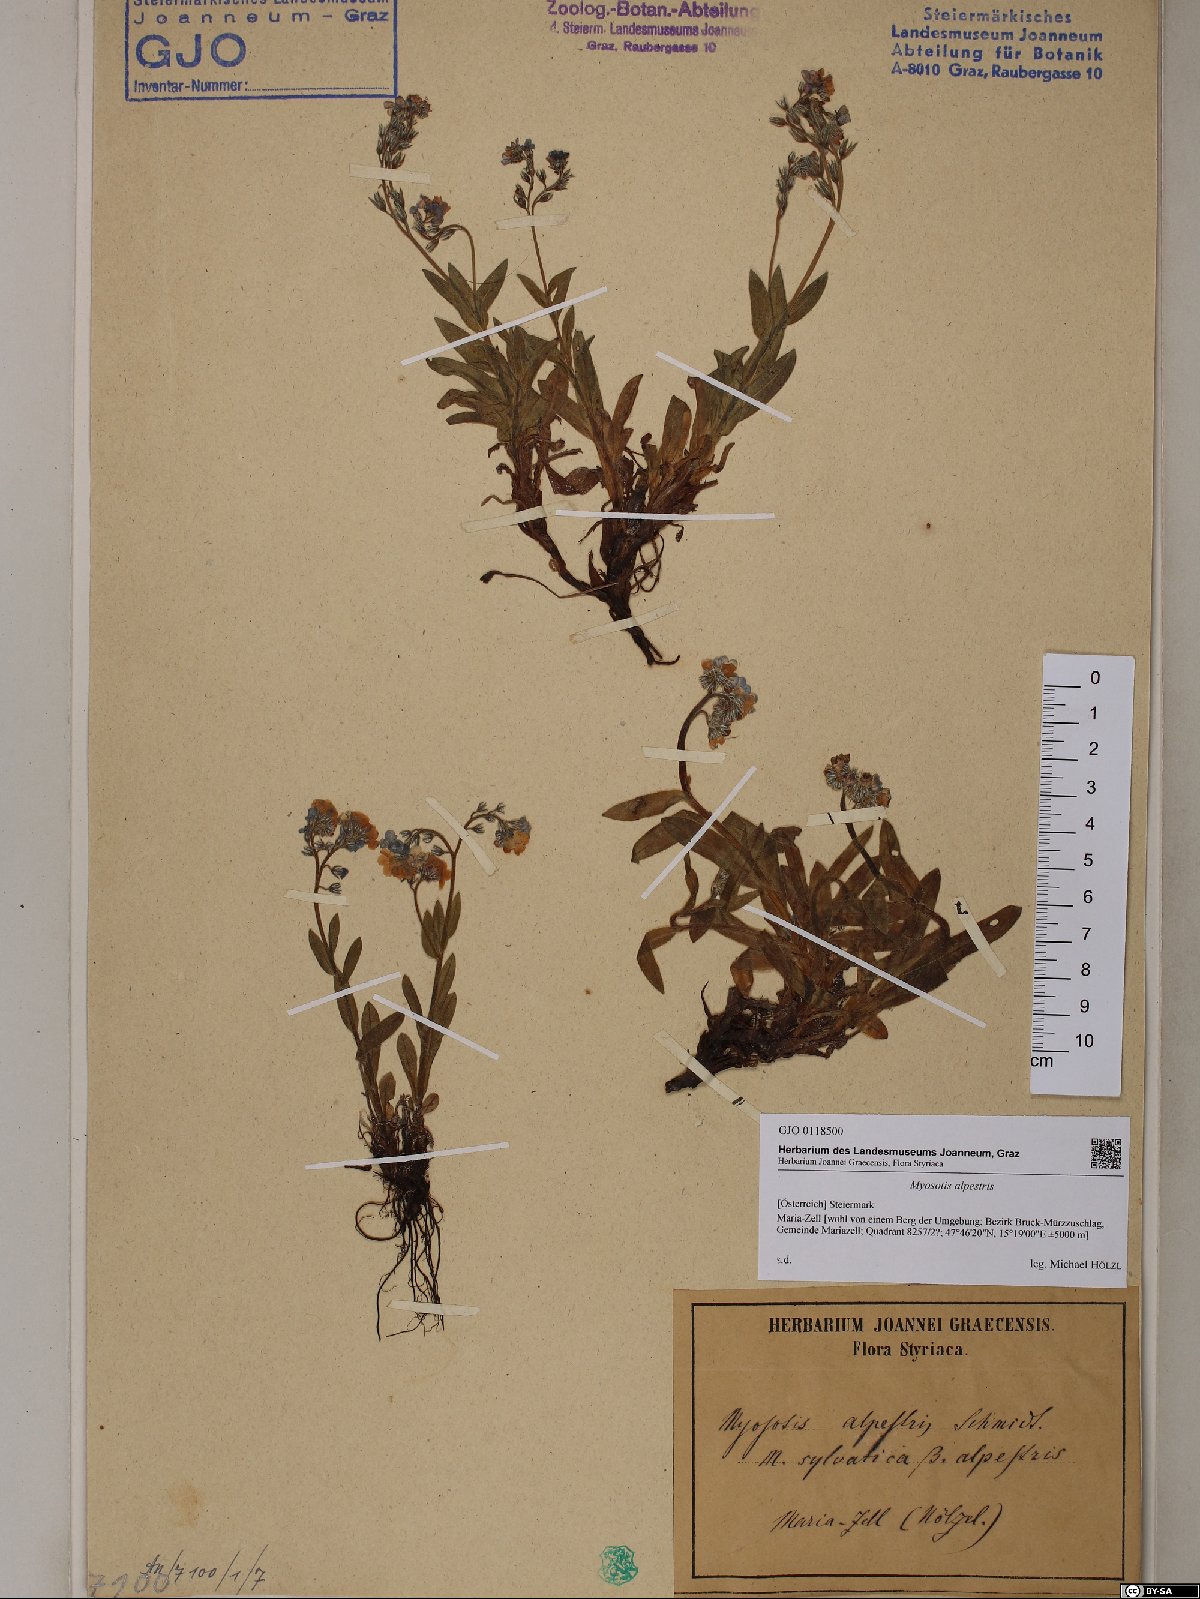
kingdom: Plantae
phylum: Tracheophyta
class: Magnoliopsida
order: Boraginales
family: Boraginaceae
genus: Myosotis
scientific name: Myosotis alpestris
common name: Alpine forget-me-not
